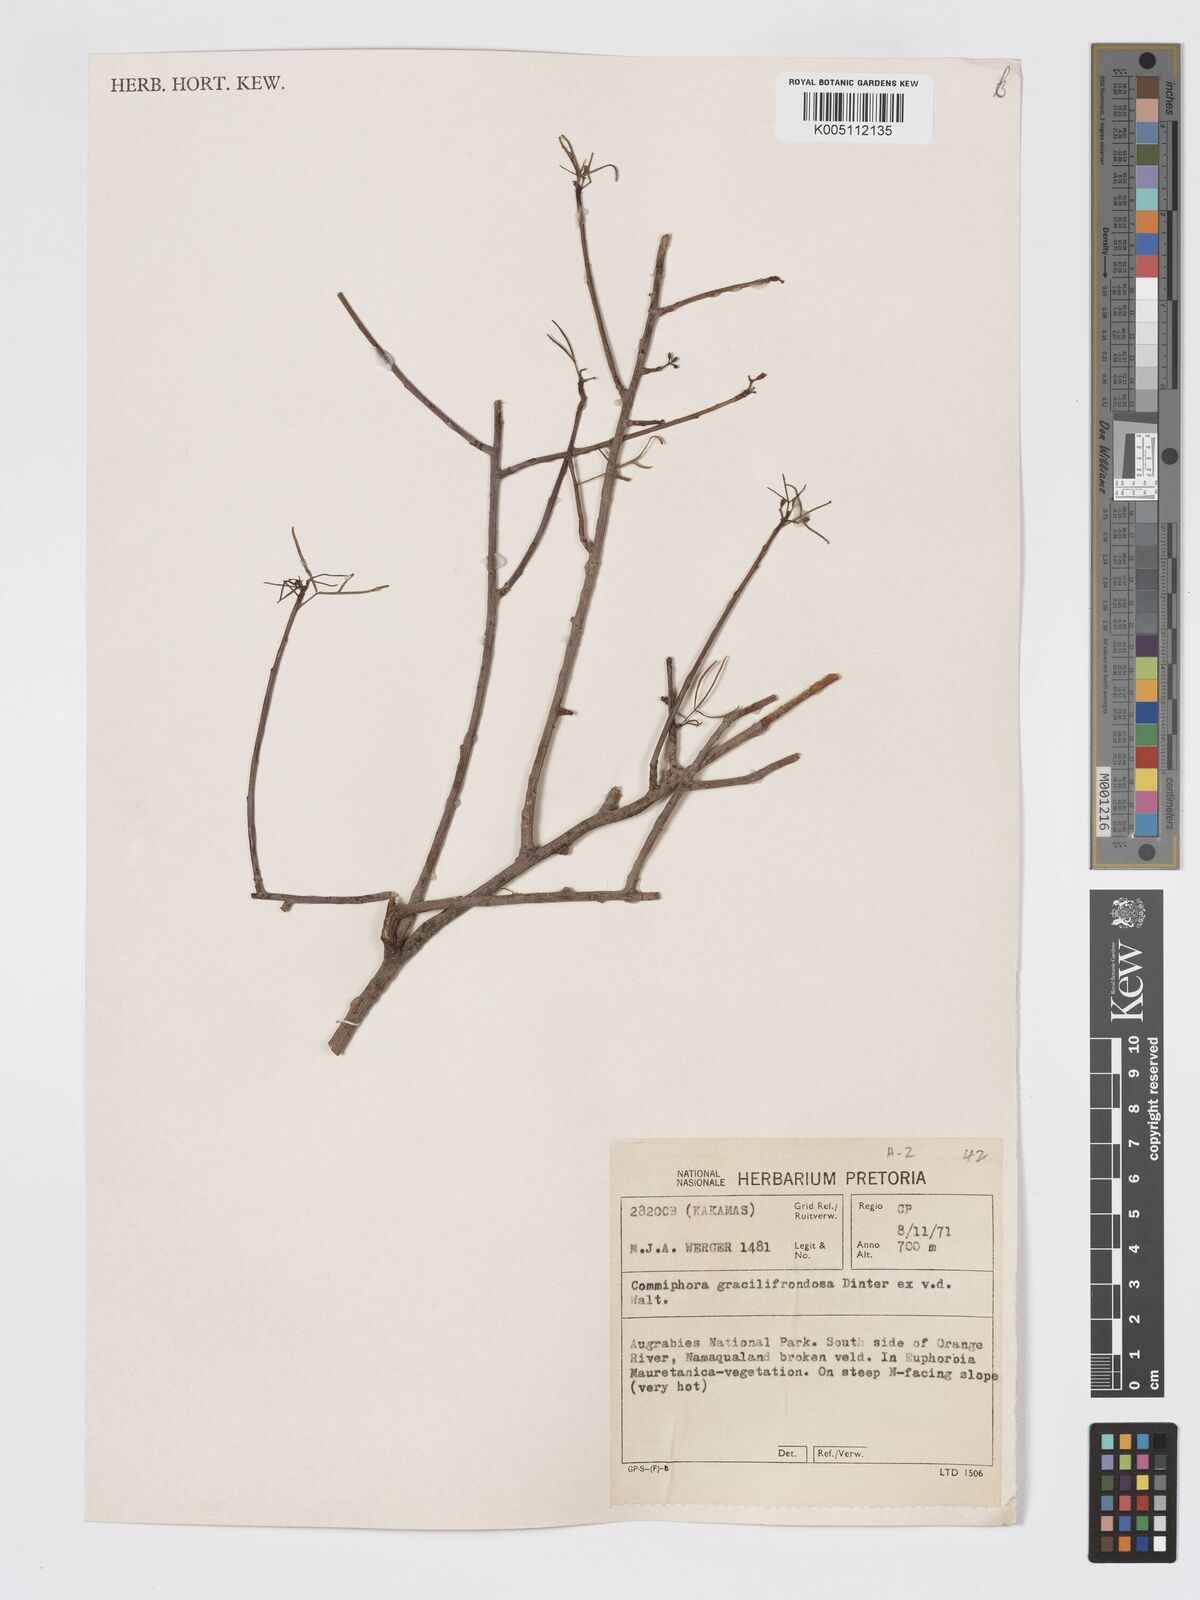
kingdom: Plantae
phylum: Tracheophyta
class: Magnoliopsida
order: Sapindales
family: Burseraceae
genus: Commiphora
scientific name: Commiphora gracilifrondosa
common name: Karee-leaved commiphora
